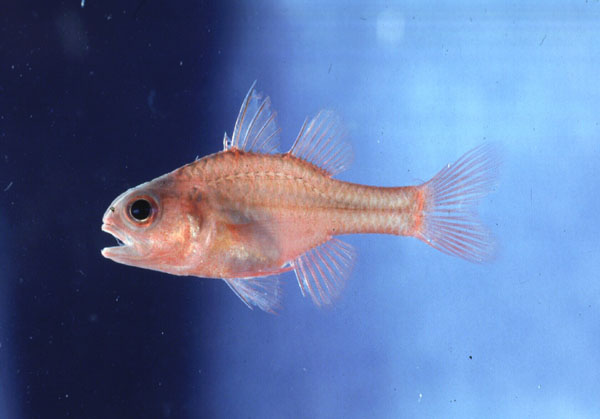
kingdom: Animalia
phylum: Chordata
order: Perciformes
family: Apogonidae
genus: Apogon
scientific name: Apogon crassiceps
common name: Little red cardinalfish
